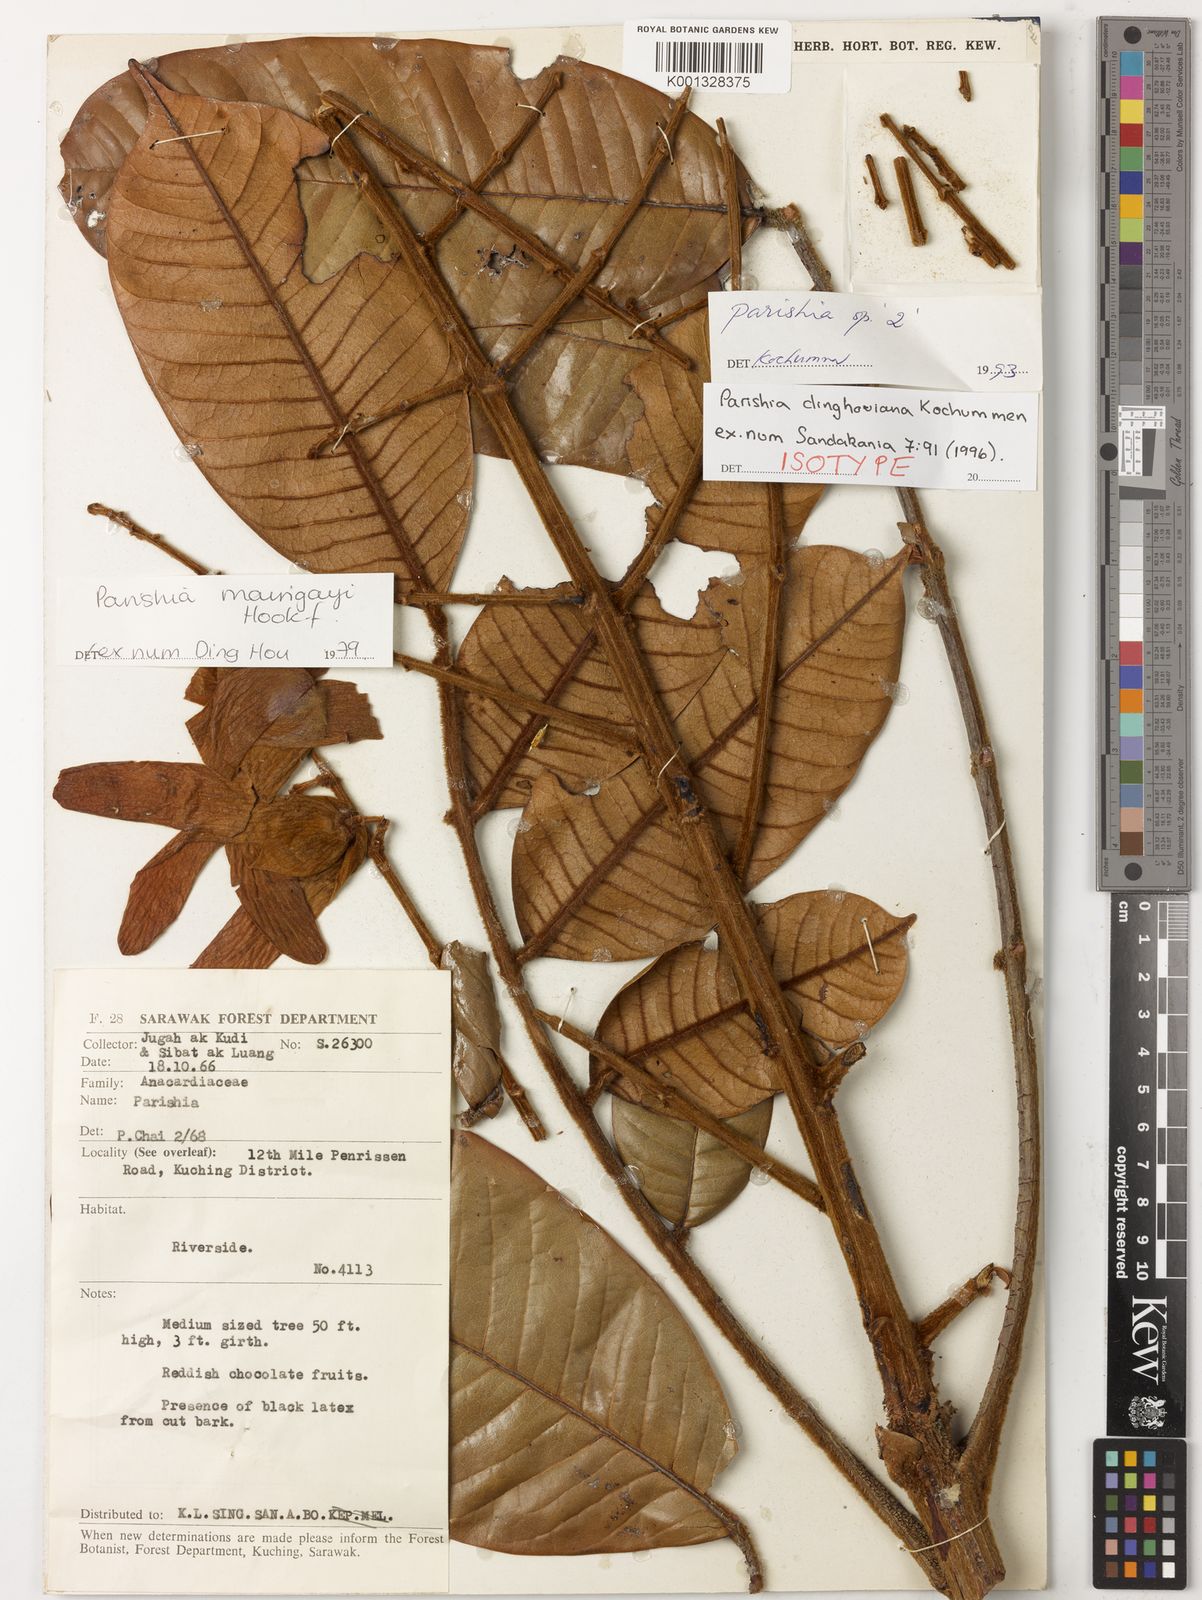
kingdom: Plantae
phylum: Tracheophyta
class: Magnoliopsida
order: Sapindales
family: Anacardiaceae
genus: Parishia
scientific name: Parishia dinghouiana
